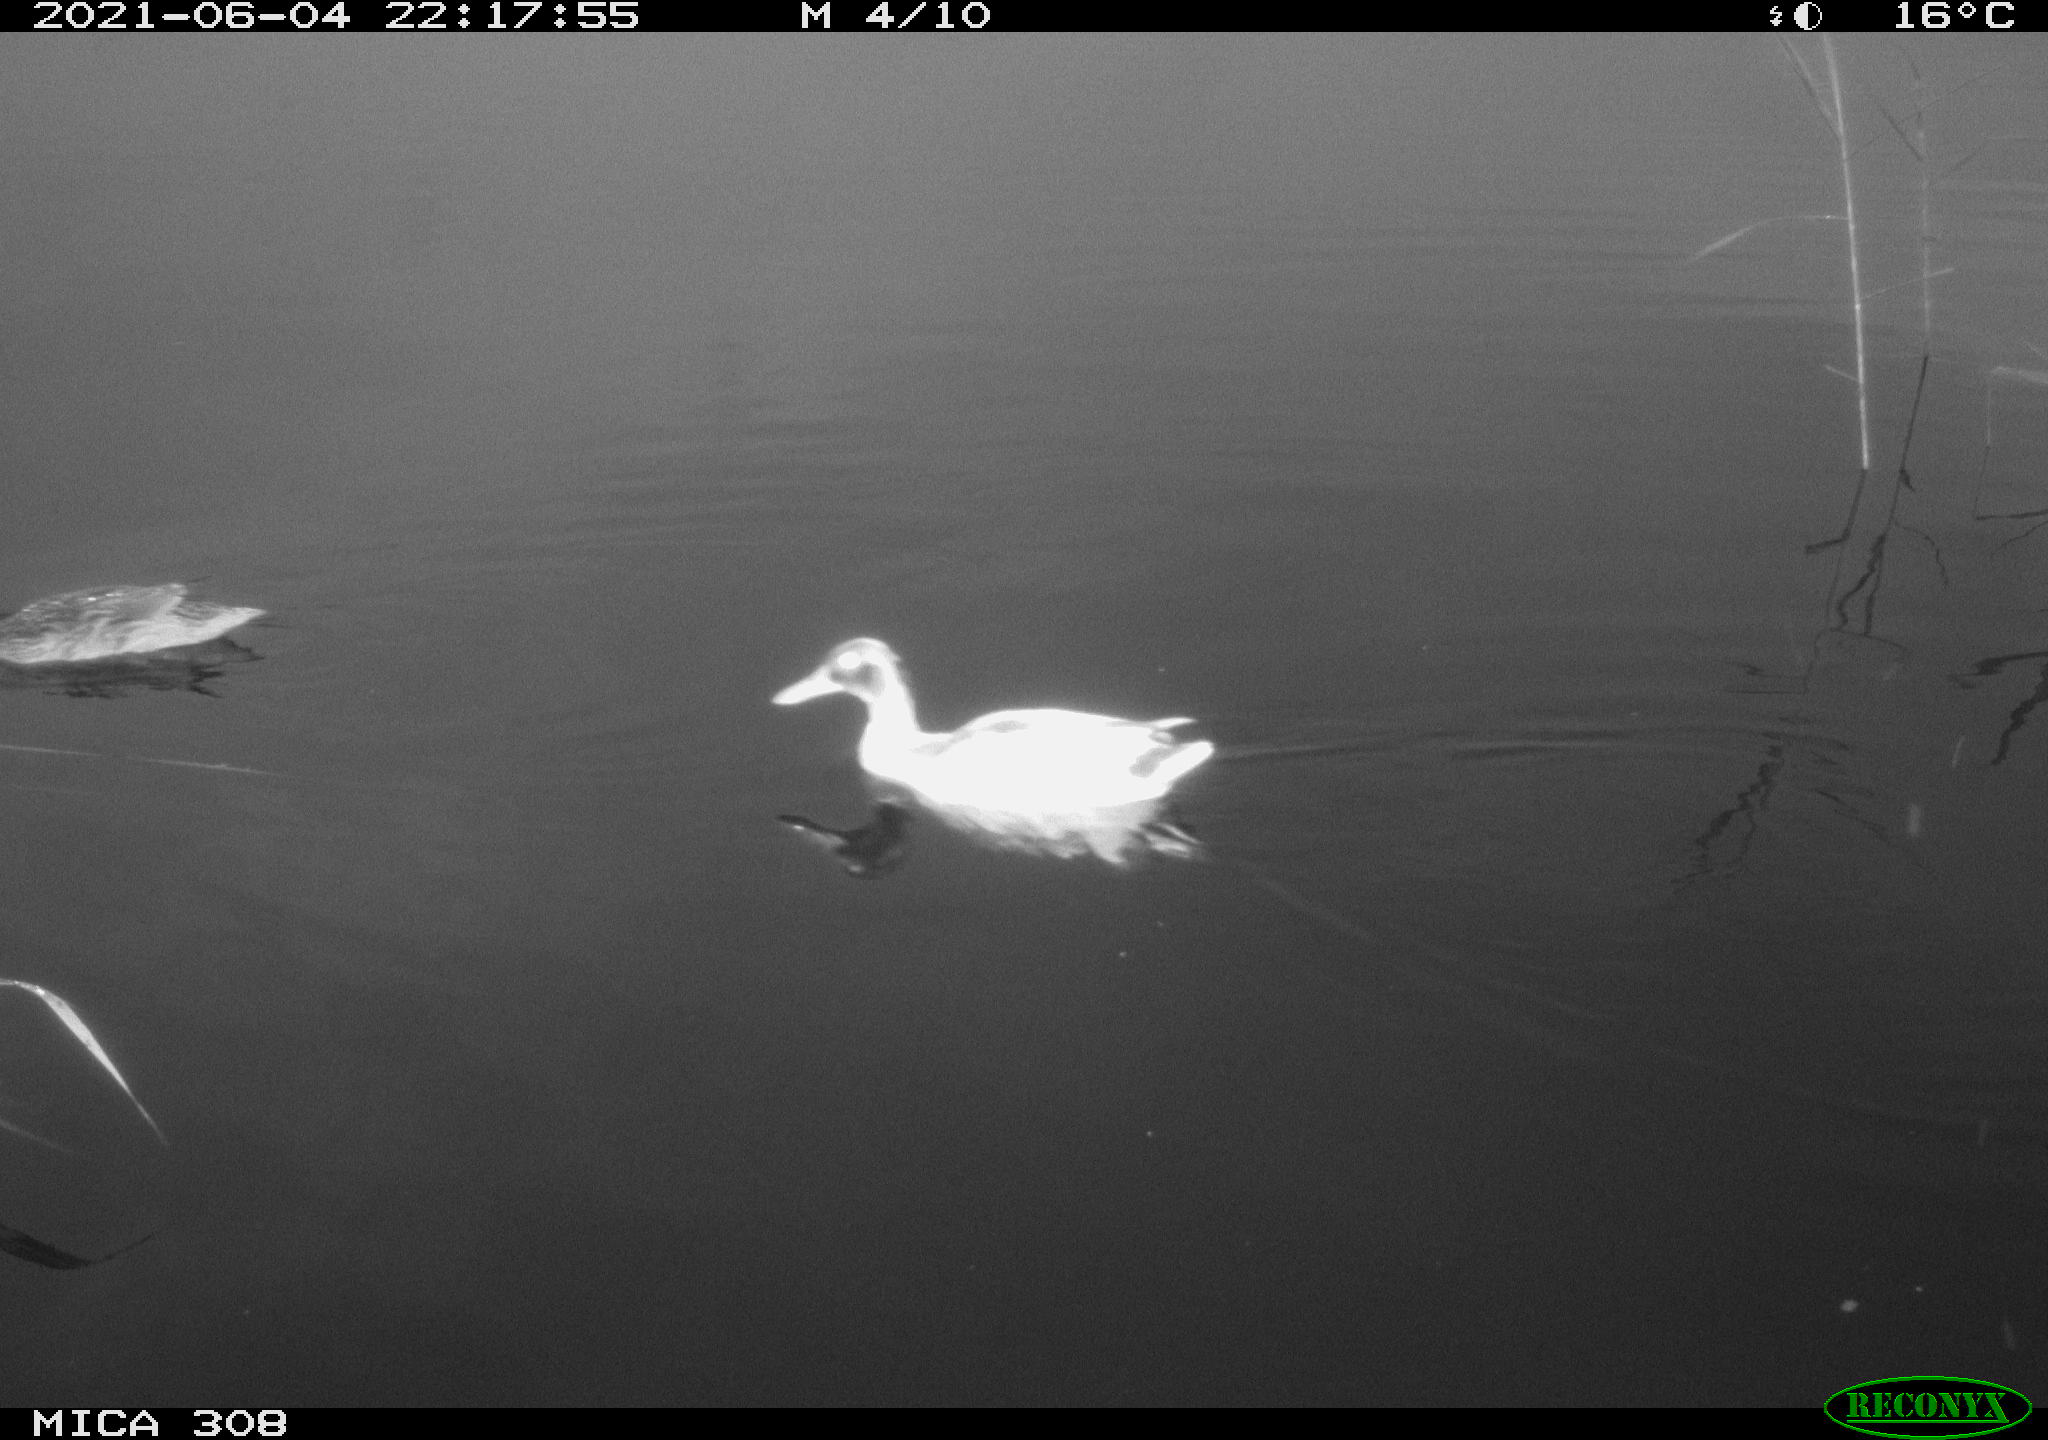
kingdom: Animalia
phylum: Chordata
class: Aves
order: Anseriformes
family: Anatidae
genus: Anas
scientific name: Anas platyrhynchos
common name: Mallard
